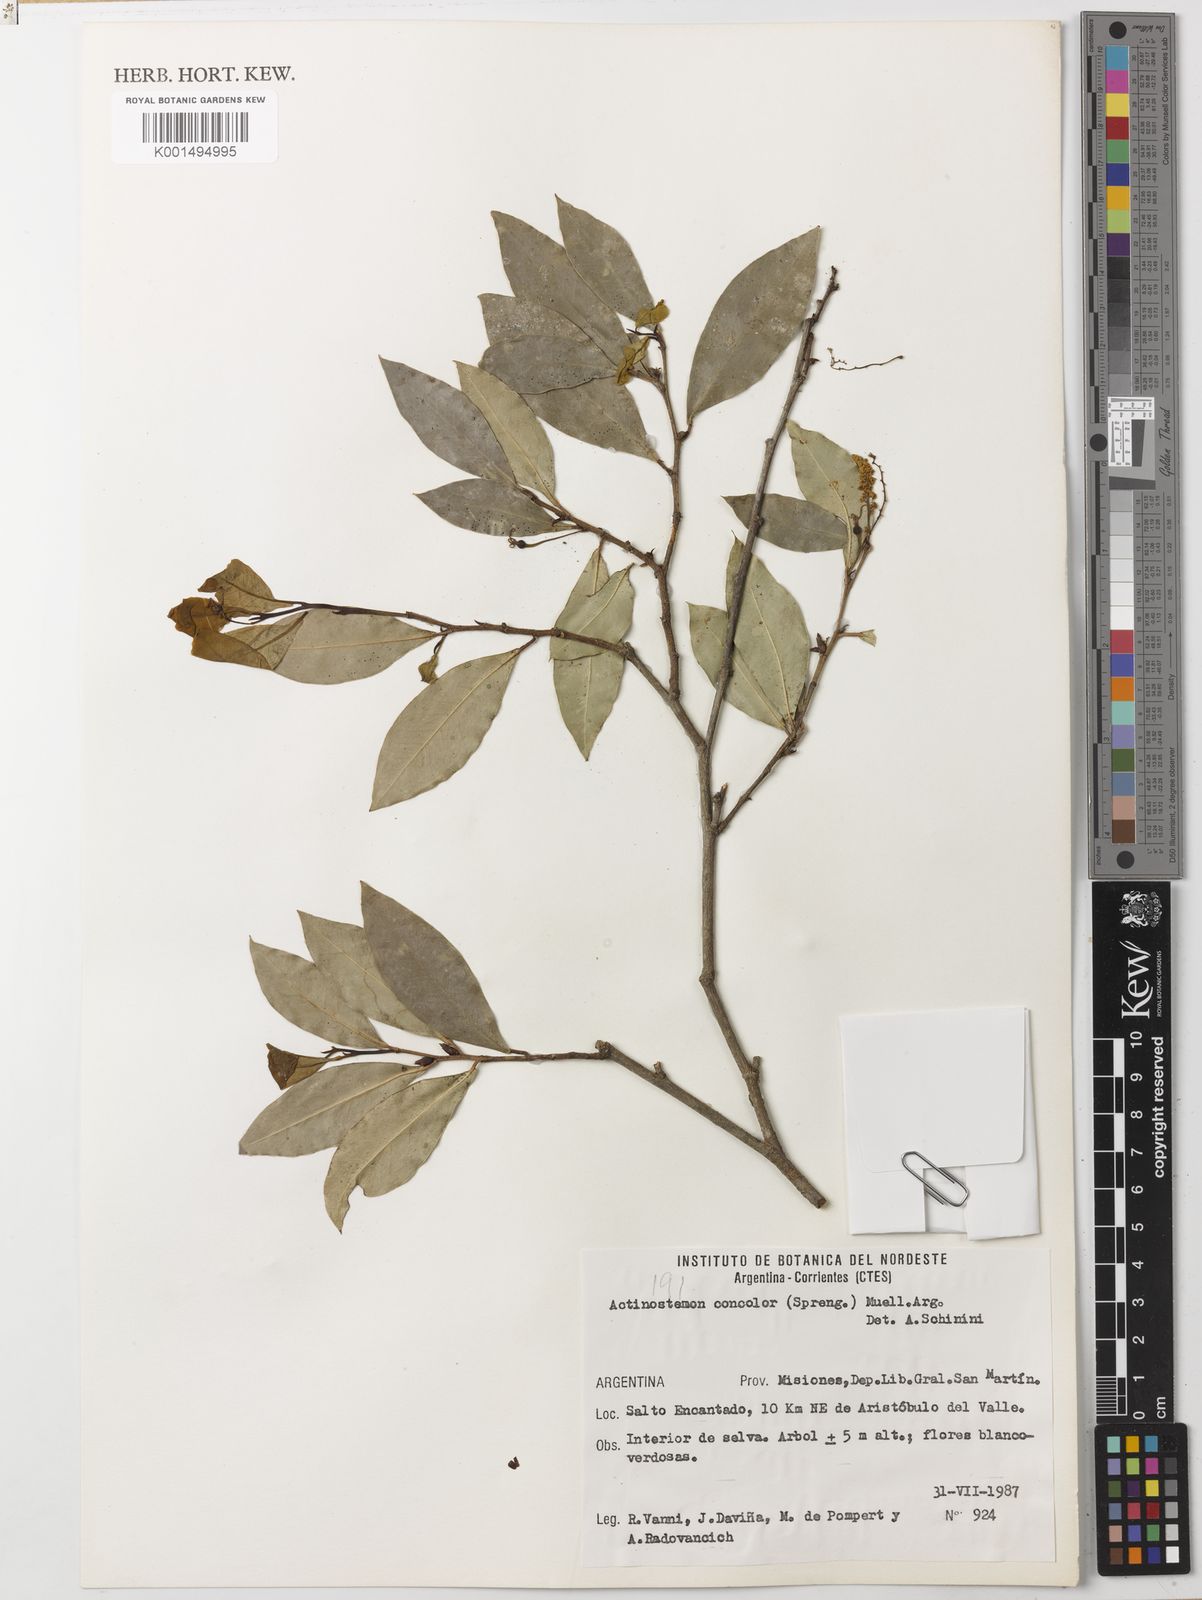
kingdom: Plantae
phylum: Tracheophyta
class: Magnoliopsida
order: Malpighiales
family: Euphorbiaceae
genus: Actinostemon
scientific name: Actinostemon concolor
